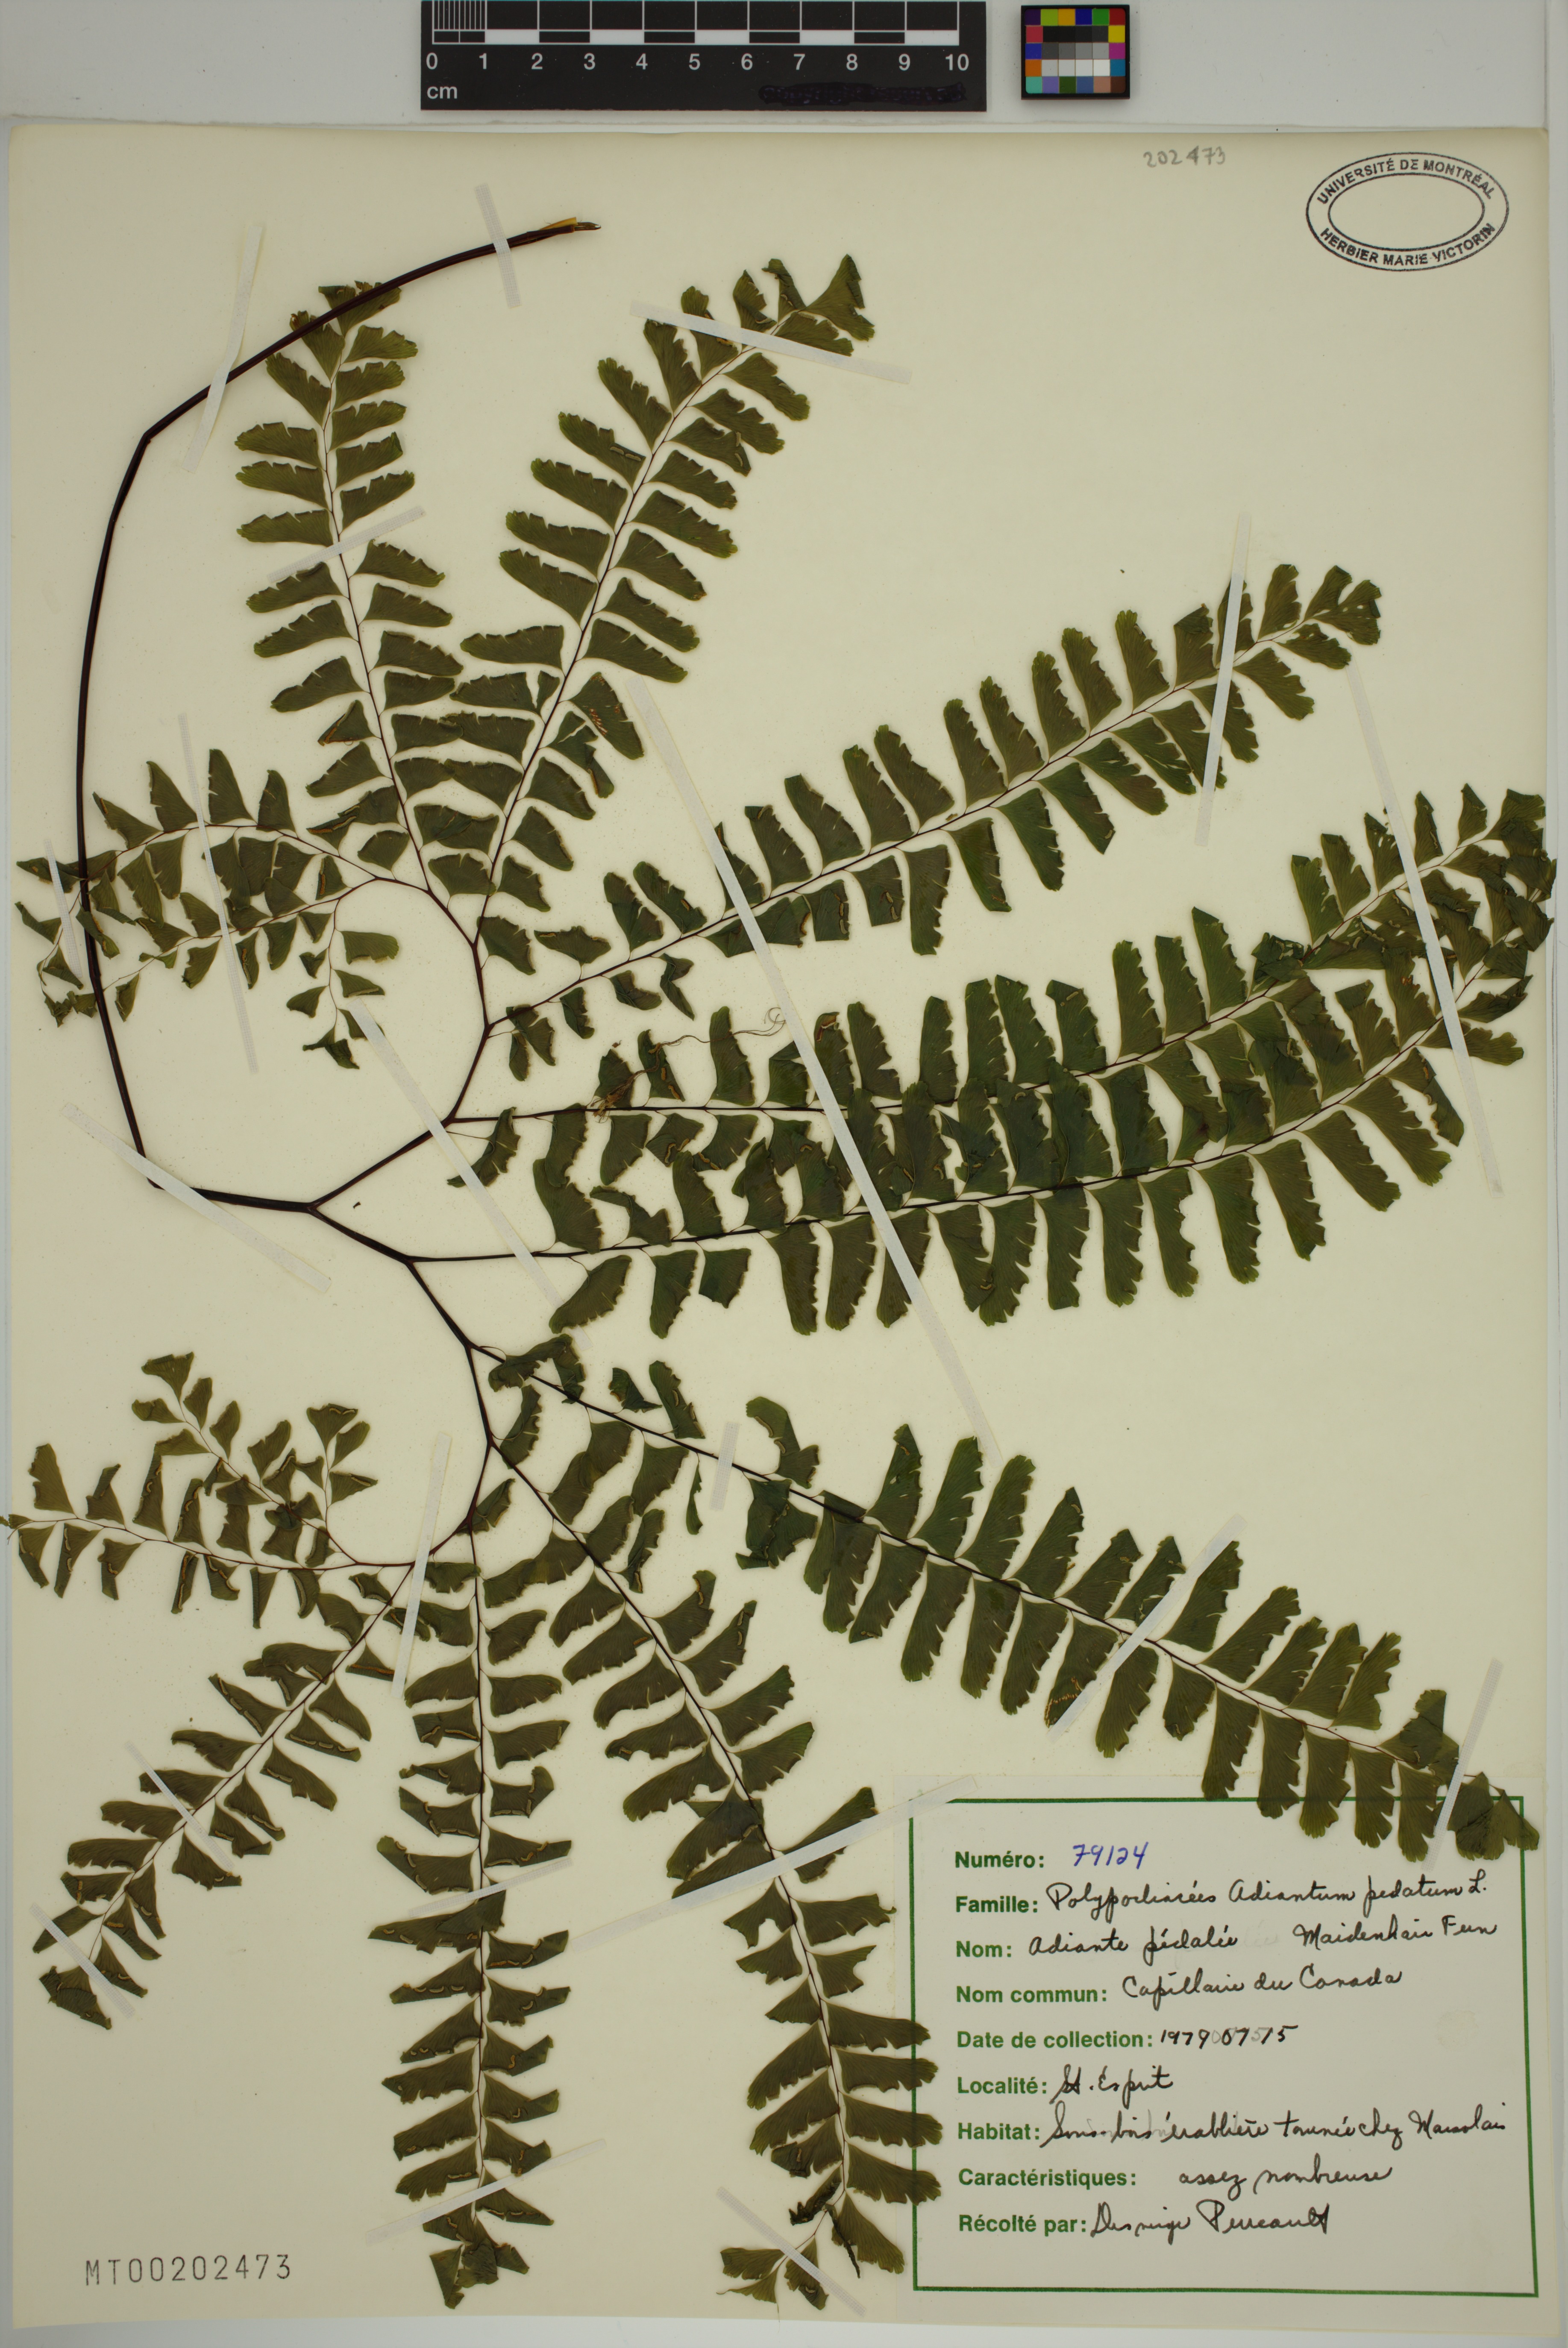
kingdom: Plantae
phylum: Tracheophyta
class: Polypodiopsida
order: Polypodiales
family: Pteridaceae
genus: Adiantum
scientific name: Adiantum pedatum
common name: Five-finger fern
